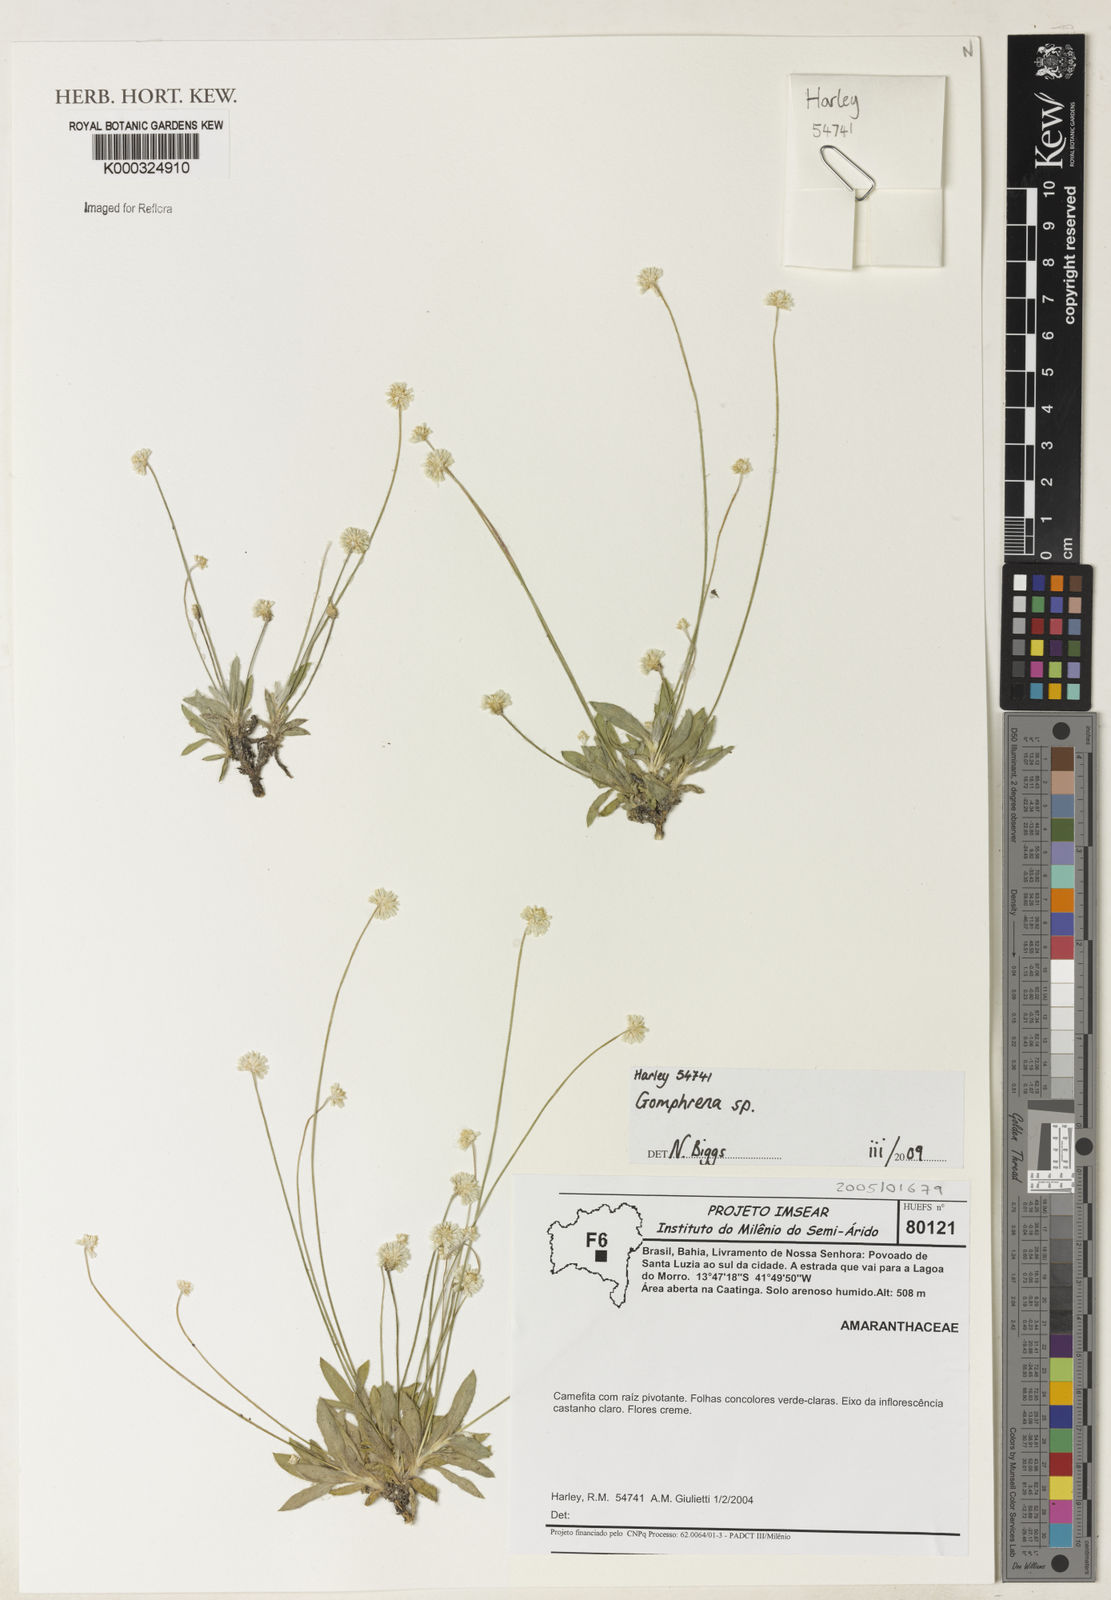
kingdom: Plantae
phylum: Tracheophyta
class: Magnoliopsida
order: Caryophyllales
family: Amaranthaceae
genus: Gomphrena
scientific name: Gomphrena
